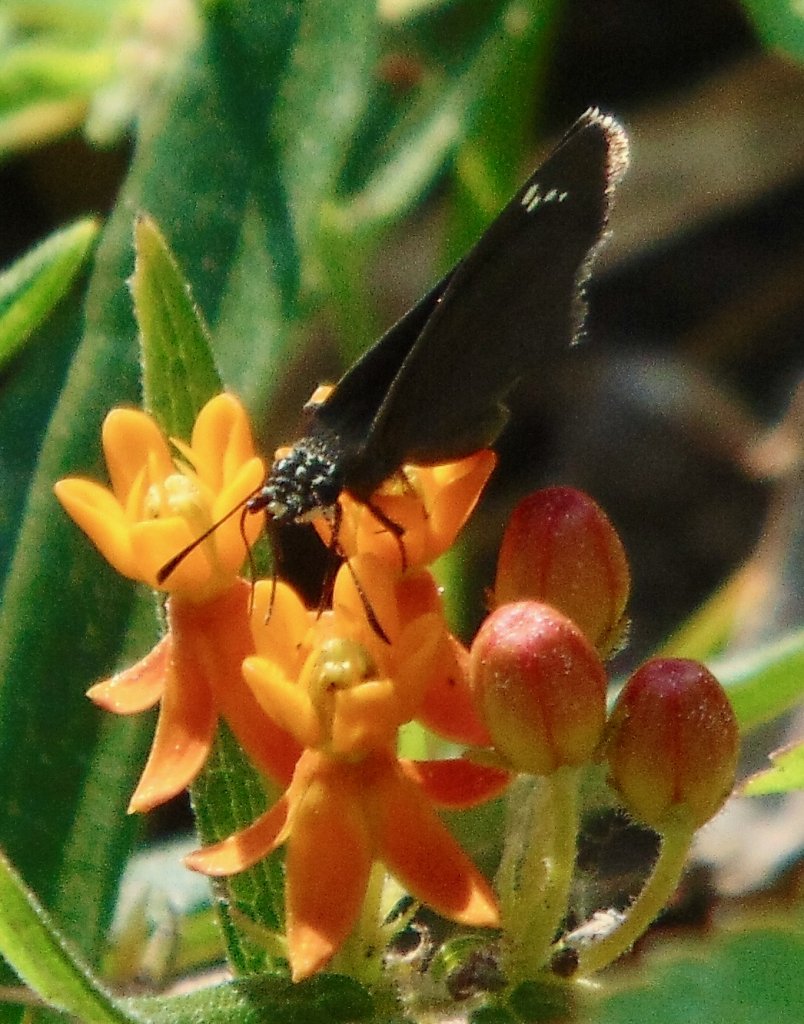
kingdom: Animalia
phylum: Arthropoda
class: Insecta
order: Lepidoptera
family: Hesperiidae
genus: Pholisora
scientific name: Pholisora catullus
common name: Common Sootywing
